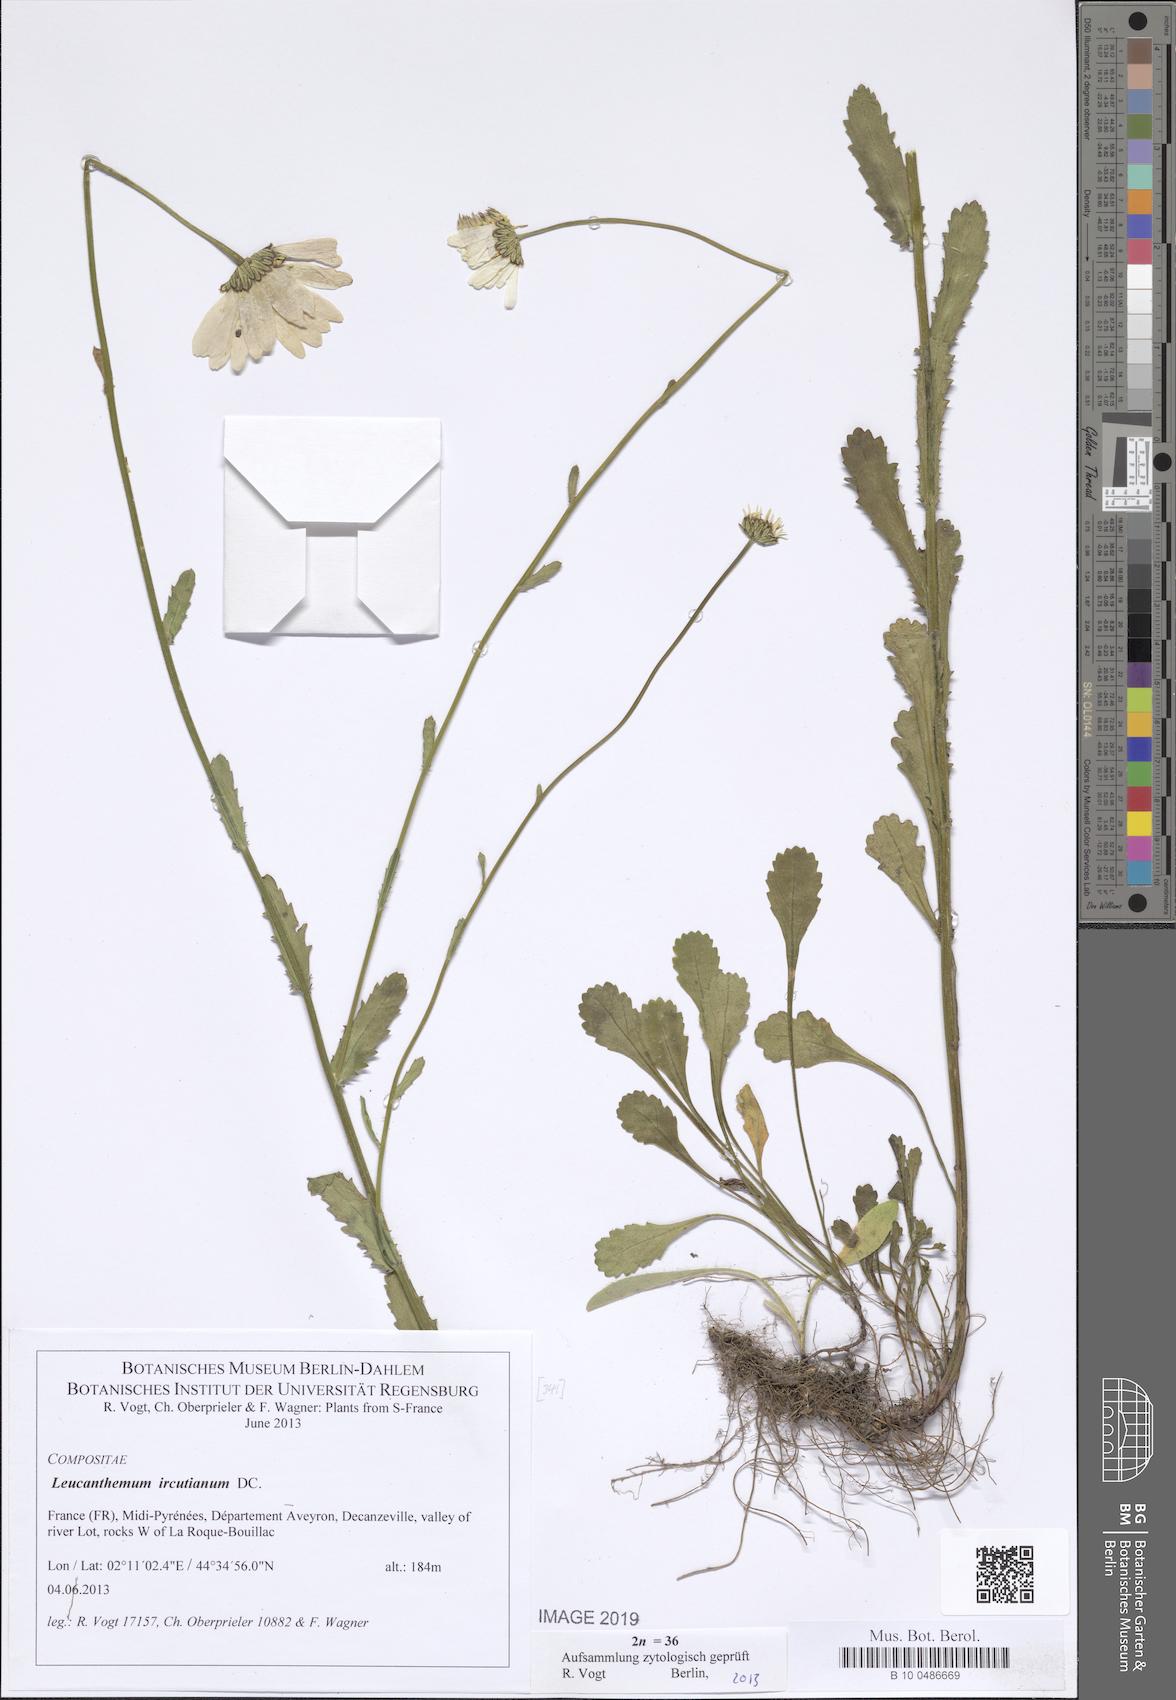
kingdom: Plantae
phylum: Tracheophyta
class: Magnoliopsida
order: Asterales
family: Asteraceae
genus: Leucanthemum
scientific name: Leucanthemum ircutianum
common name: Daisy
